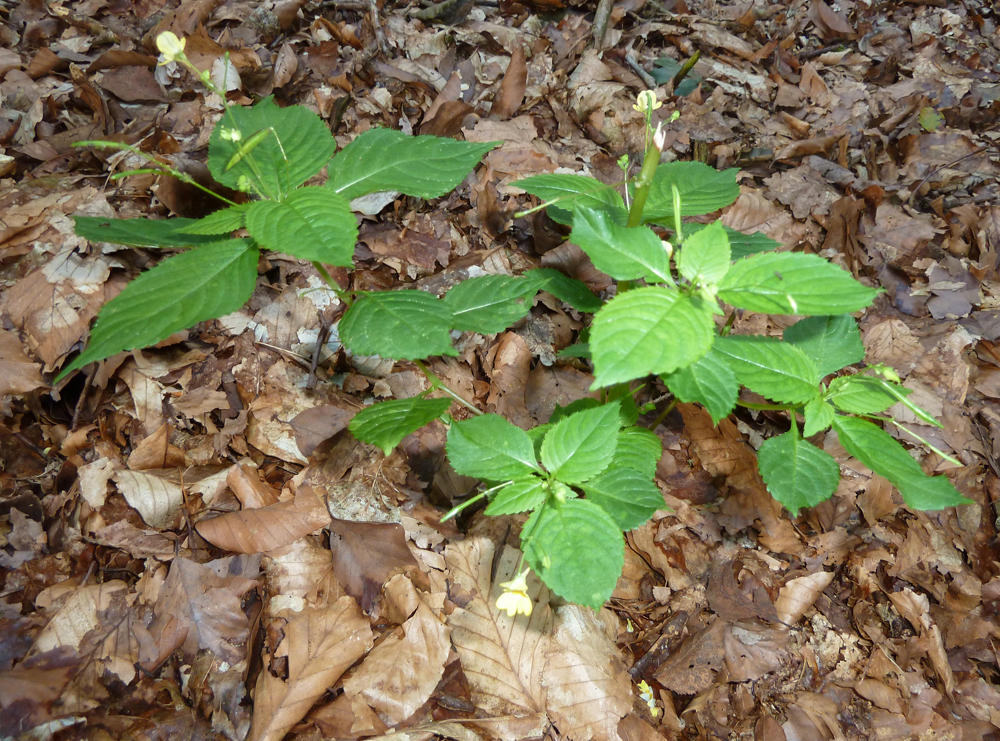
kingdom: Plantae
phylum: Tracheophyta
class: Magnoliopsida
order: Ericales
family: Balsaminaceae
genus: Impatiens
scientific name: Impatiens parviflora
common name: Small balsam
